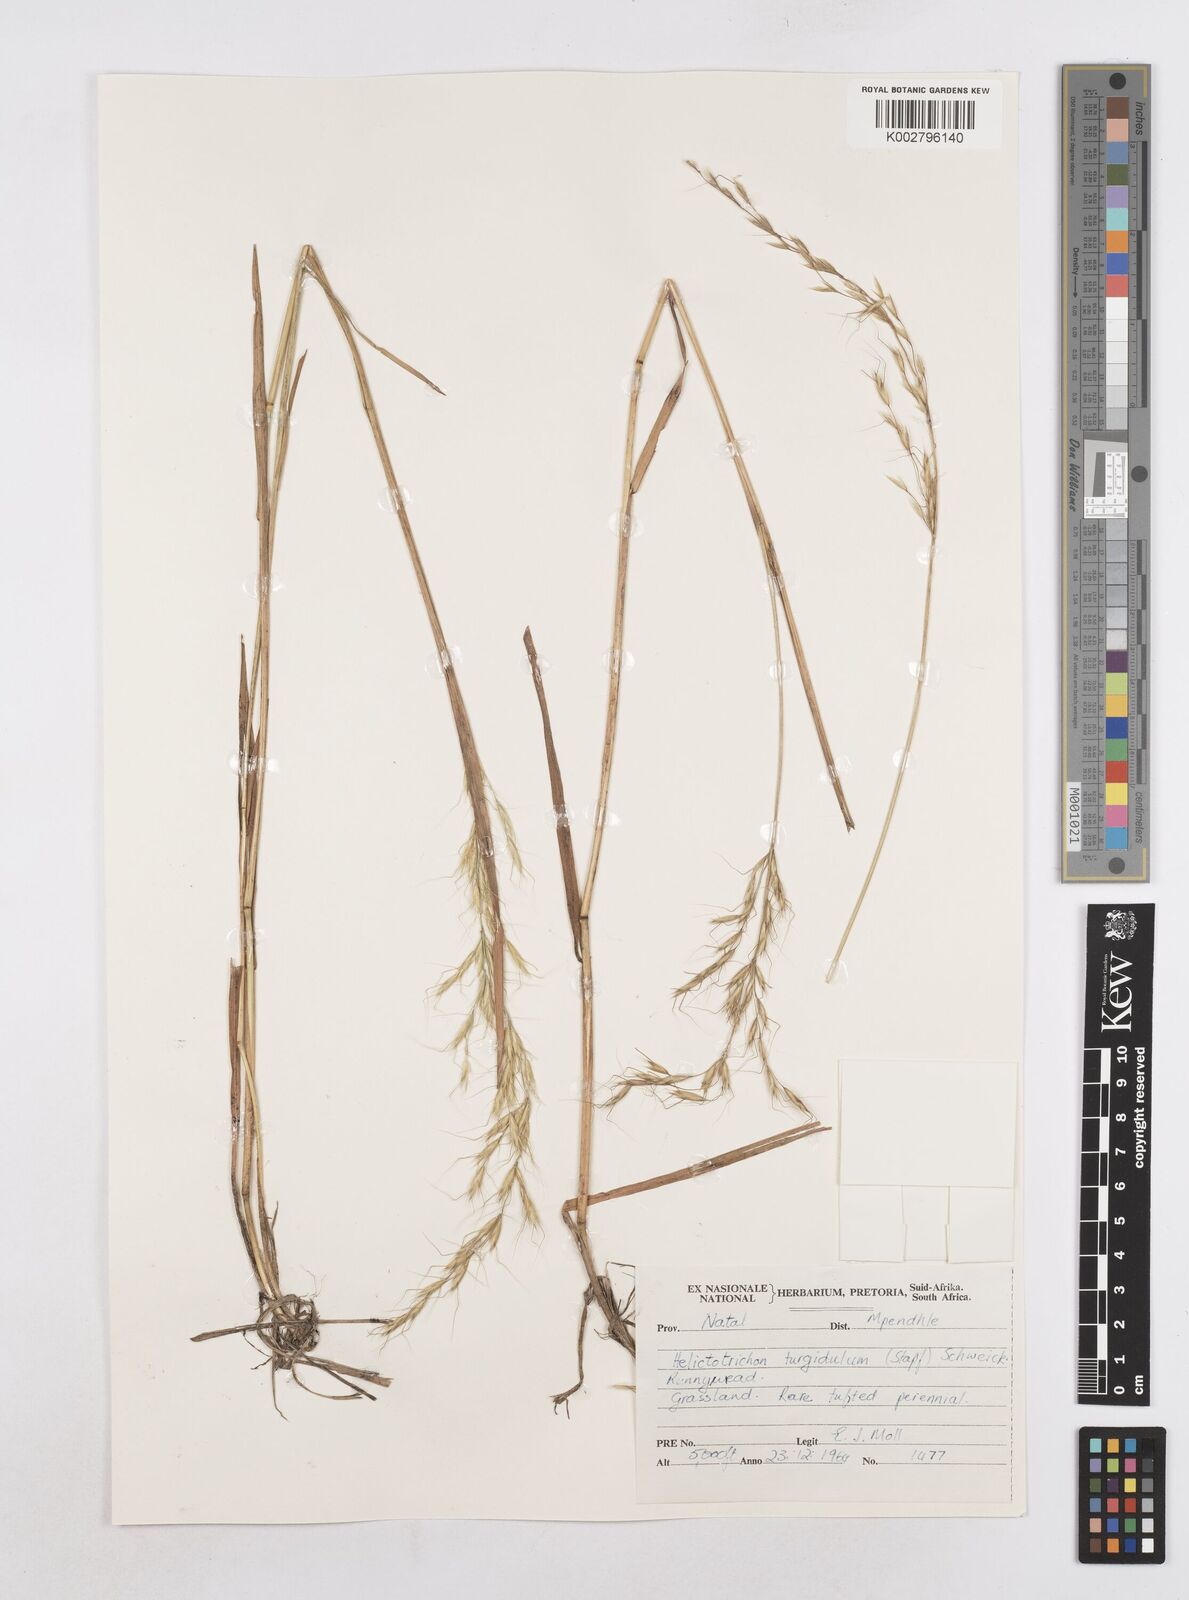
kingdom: Plantae
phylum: Tracheophyta
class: Liliopsida
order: Poales
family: Poaceae
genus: Trisetopsis
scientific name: Trisetopsis imberbis
